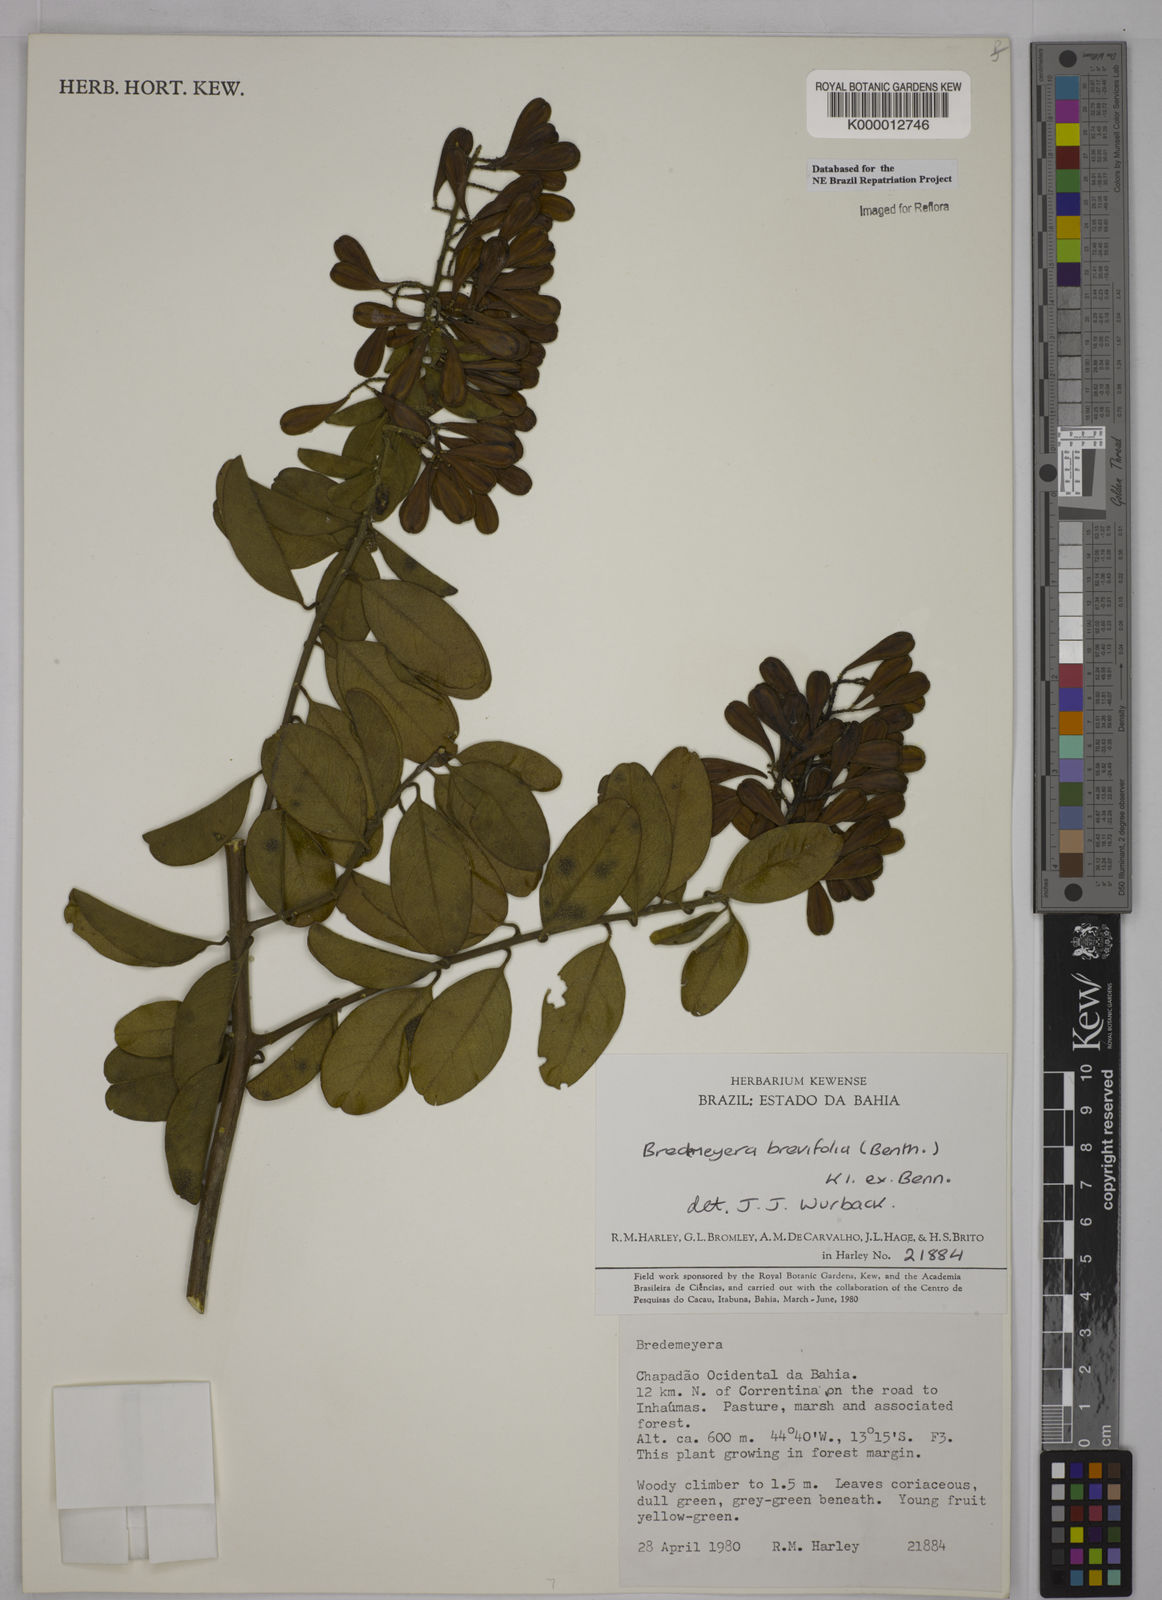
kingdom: Plantae
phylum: Tracheophyta
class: Magnoliopsida
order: Fabales
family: Polygalaceae
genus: Bredemeyera
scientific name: Bredemeyera brevifolia
